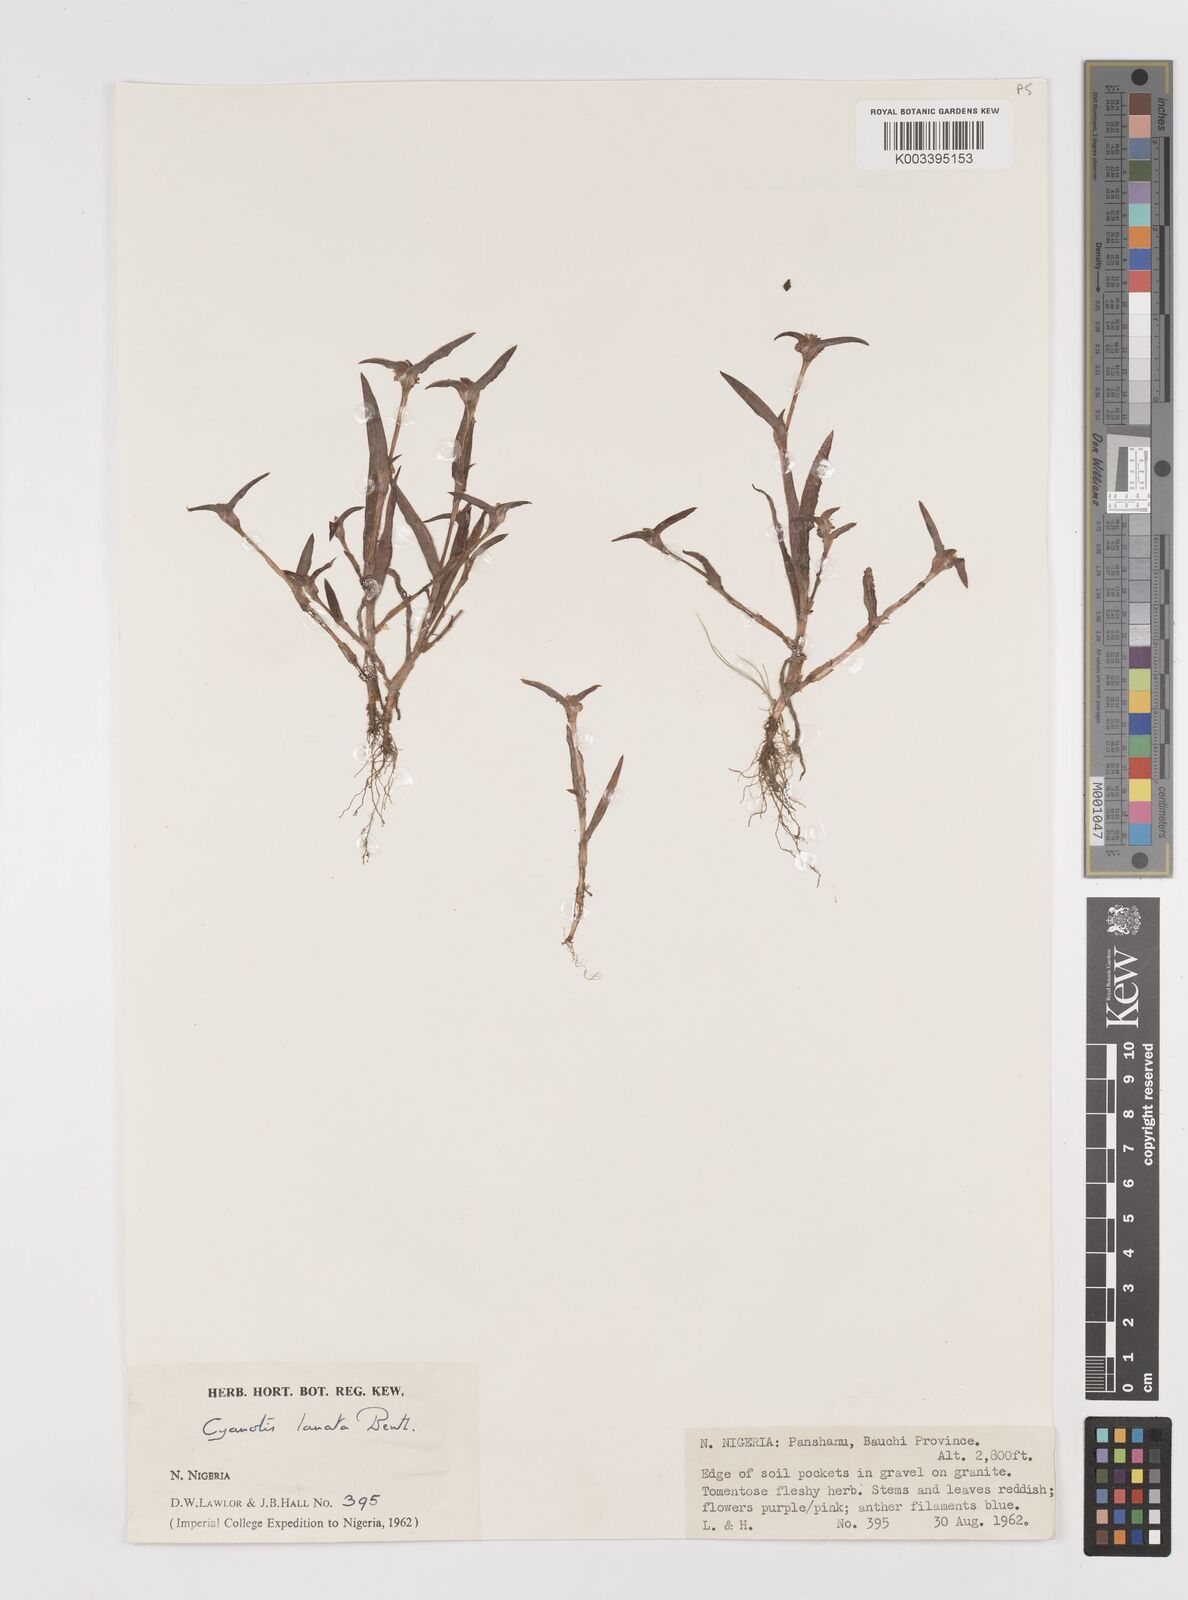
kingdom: Plantae
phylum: Tracheophyta
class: Liliopsida
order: Commelinales
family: Commelinaceae
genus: Cyanotis
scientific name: Cyanotis lanata
